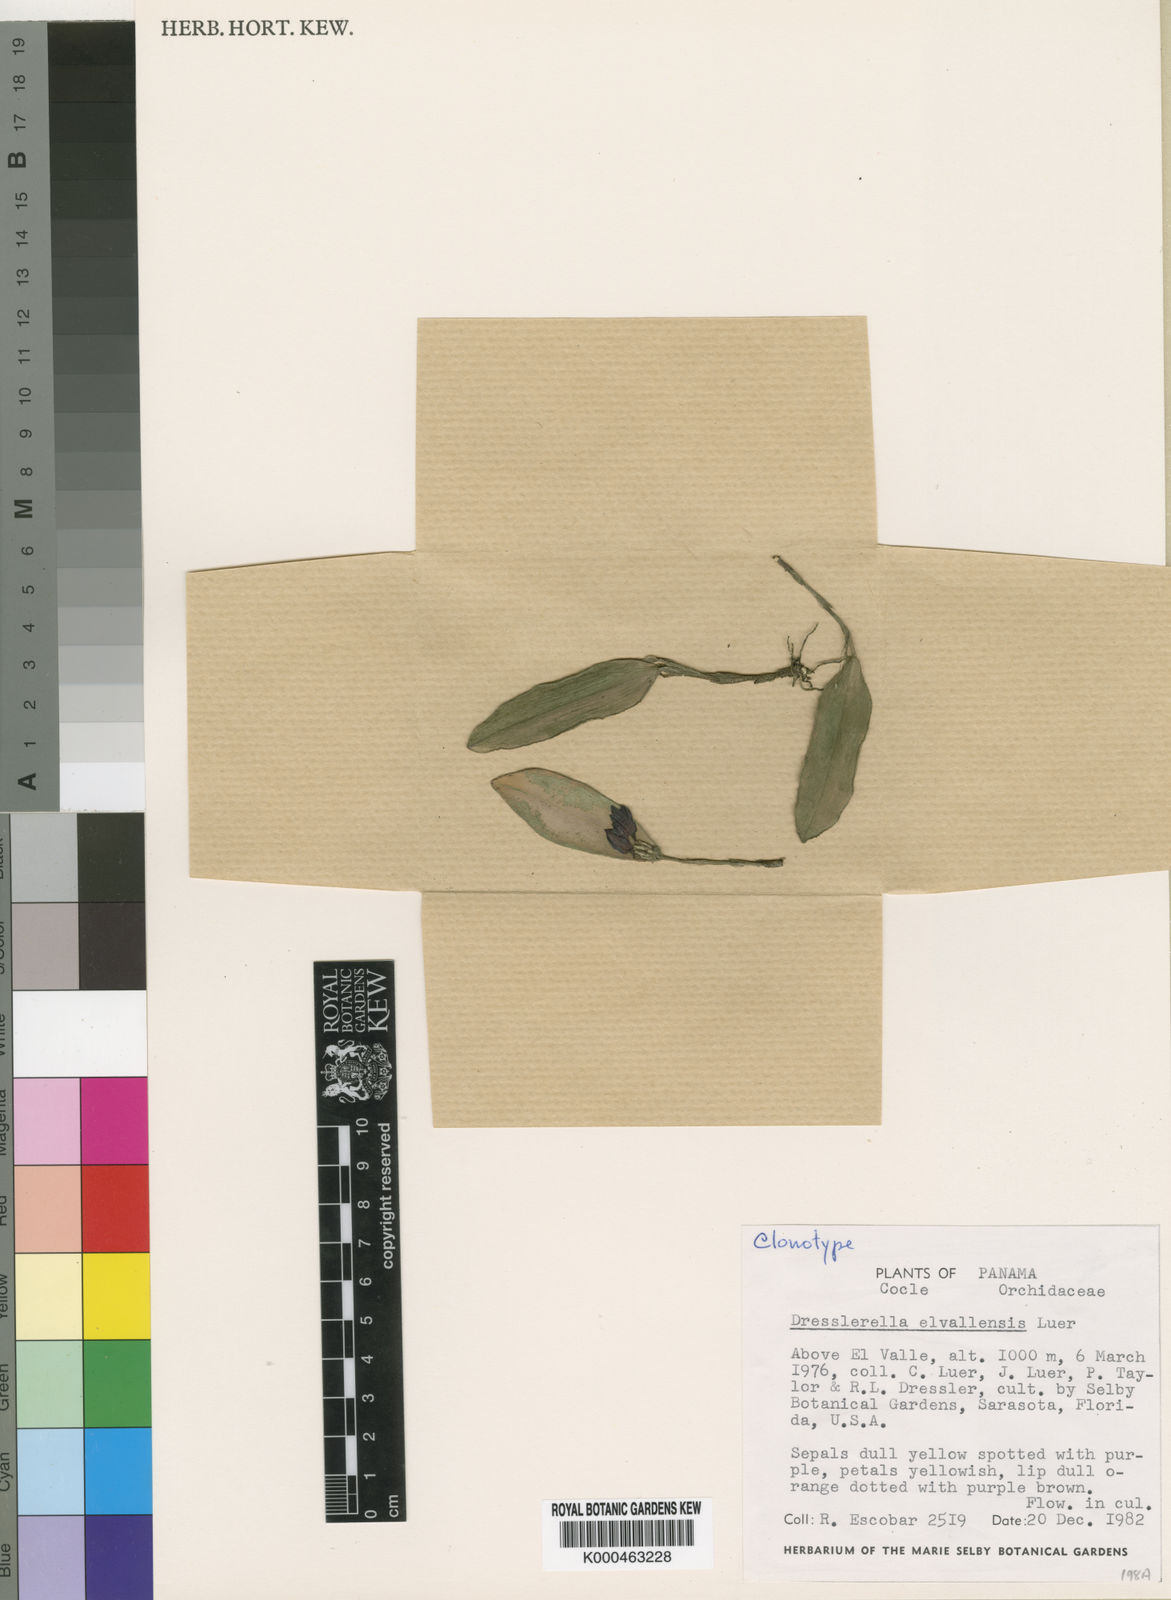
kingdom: Plantae
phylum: Tracheophyta
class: Liliopsida
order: Asparagales
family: Orchidaceae
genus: Dresslerella
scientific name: Dresslerella elvallensis
